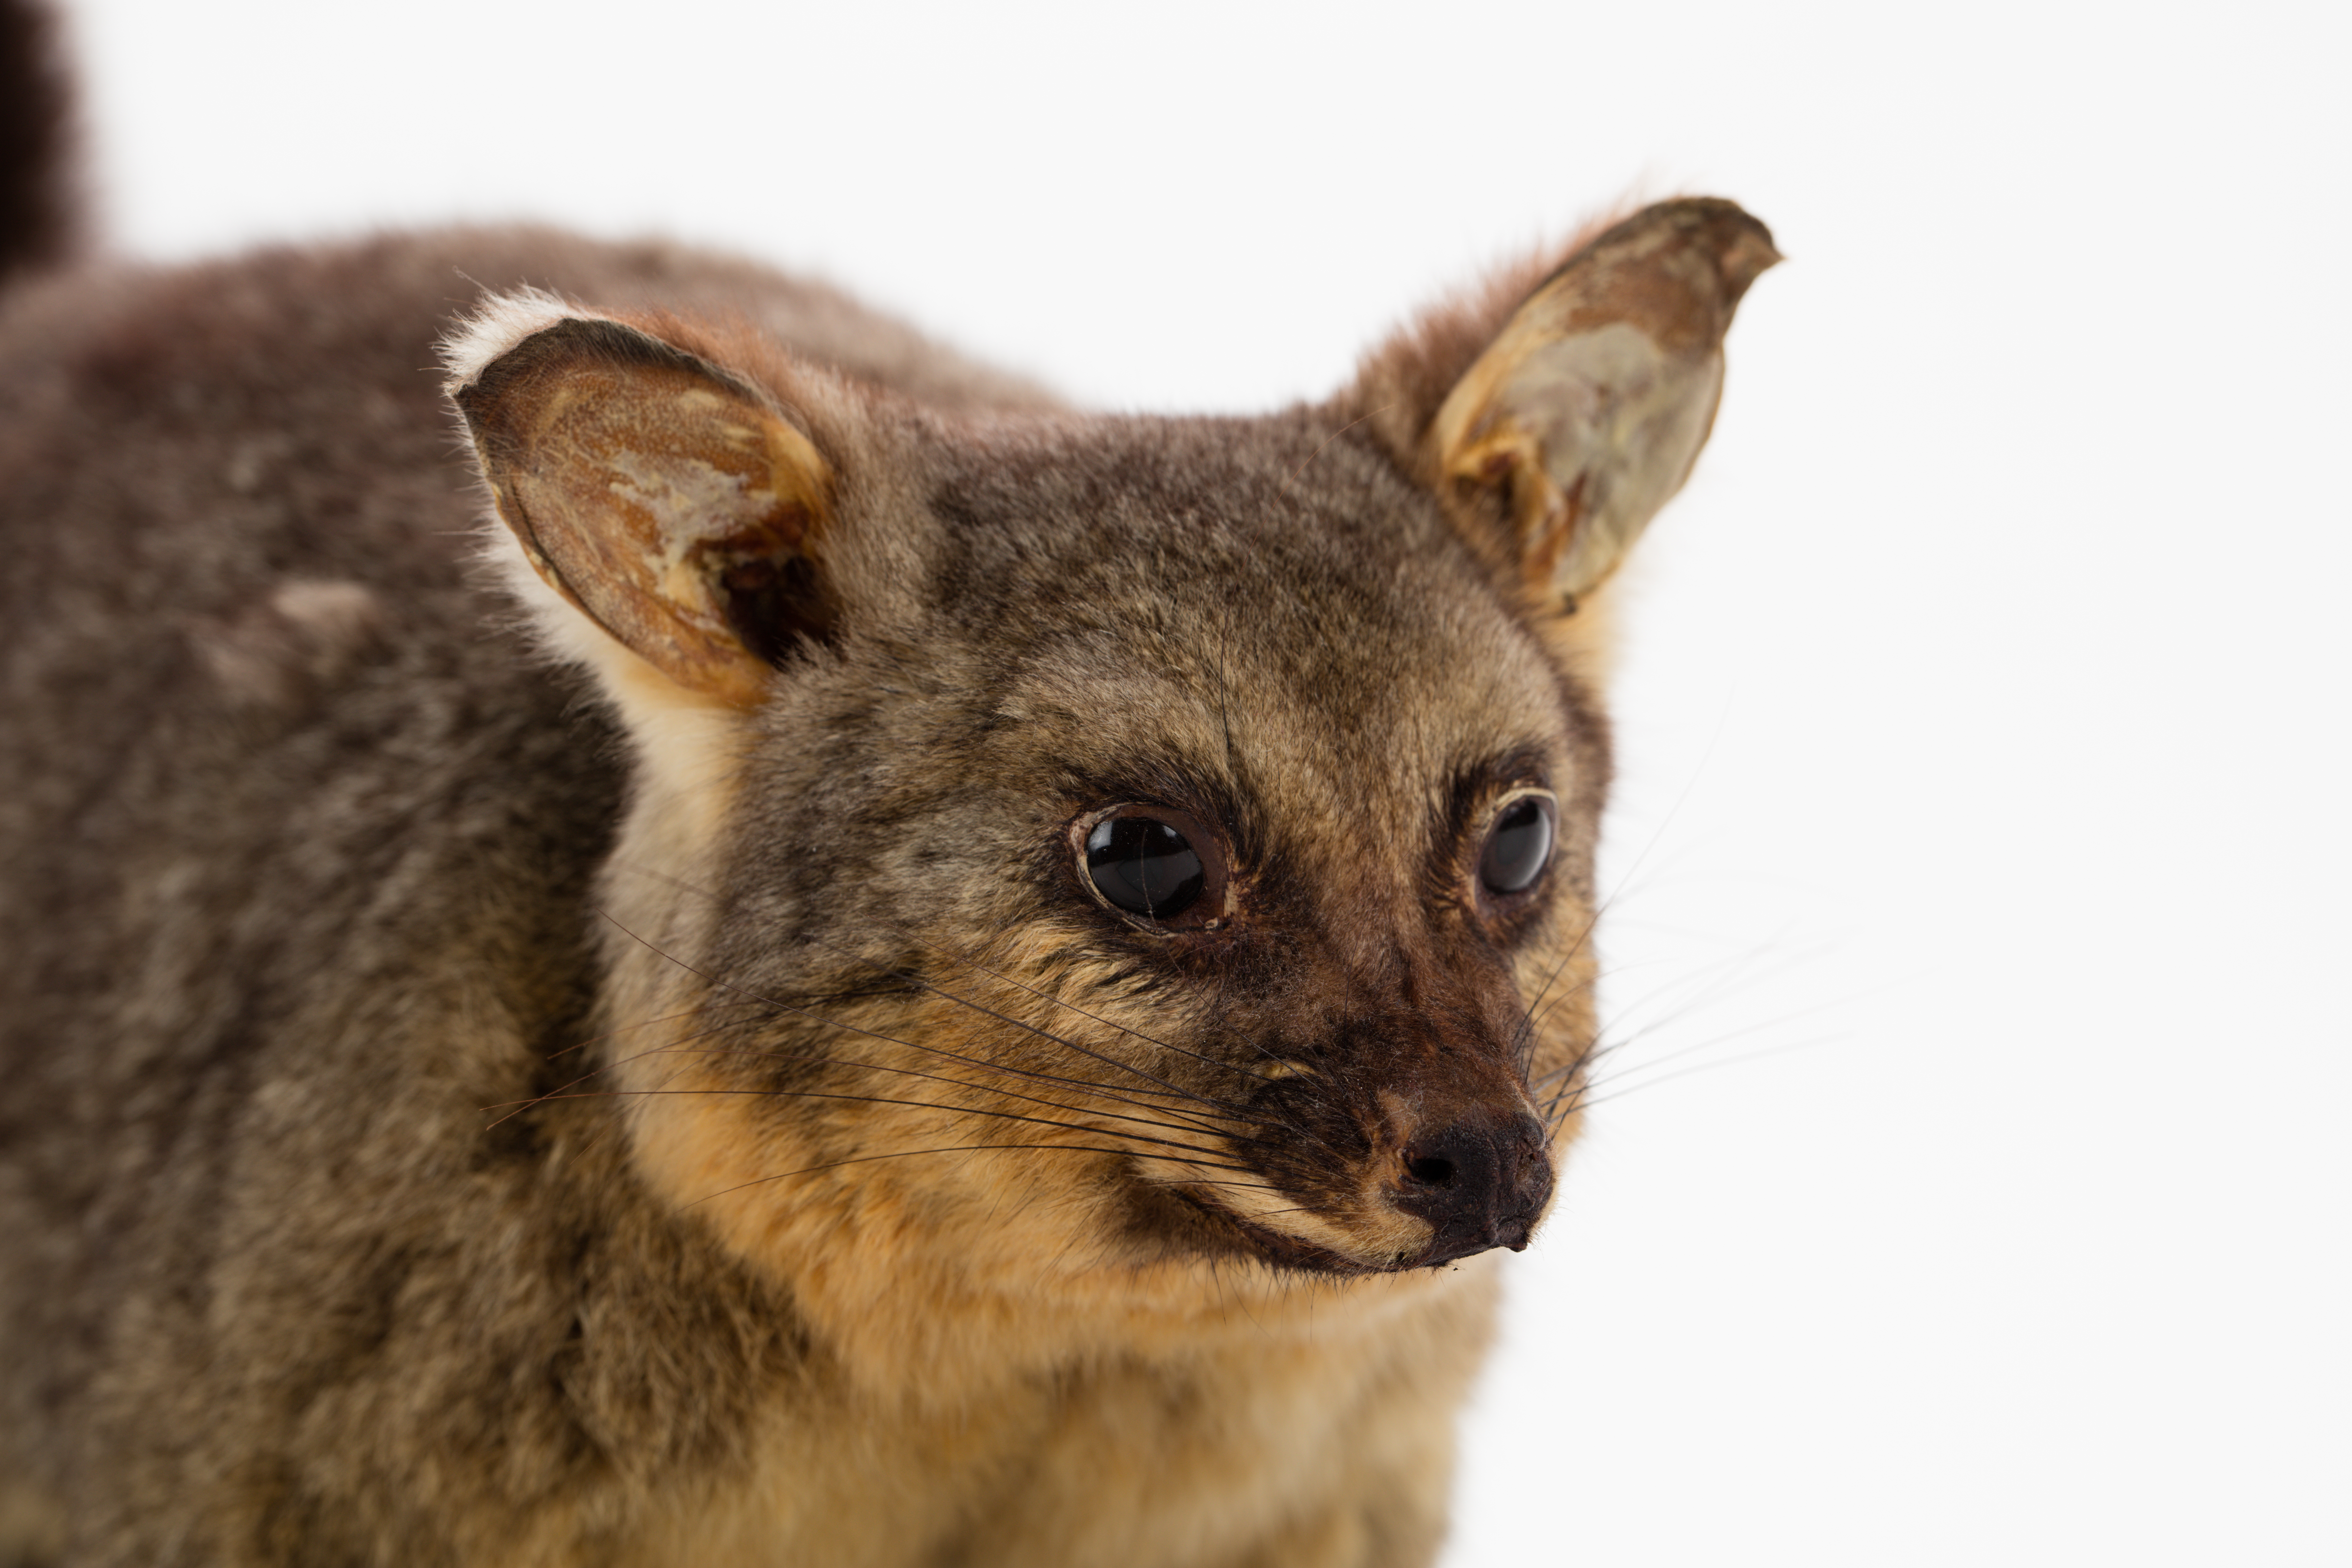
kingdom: Animalia
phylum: Chordata
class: Mammalia
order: Diprotodontia
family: Phalangeridae
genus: Trichosurus
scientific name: Trichosurus vulpecula
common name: Common brushtail
